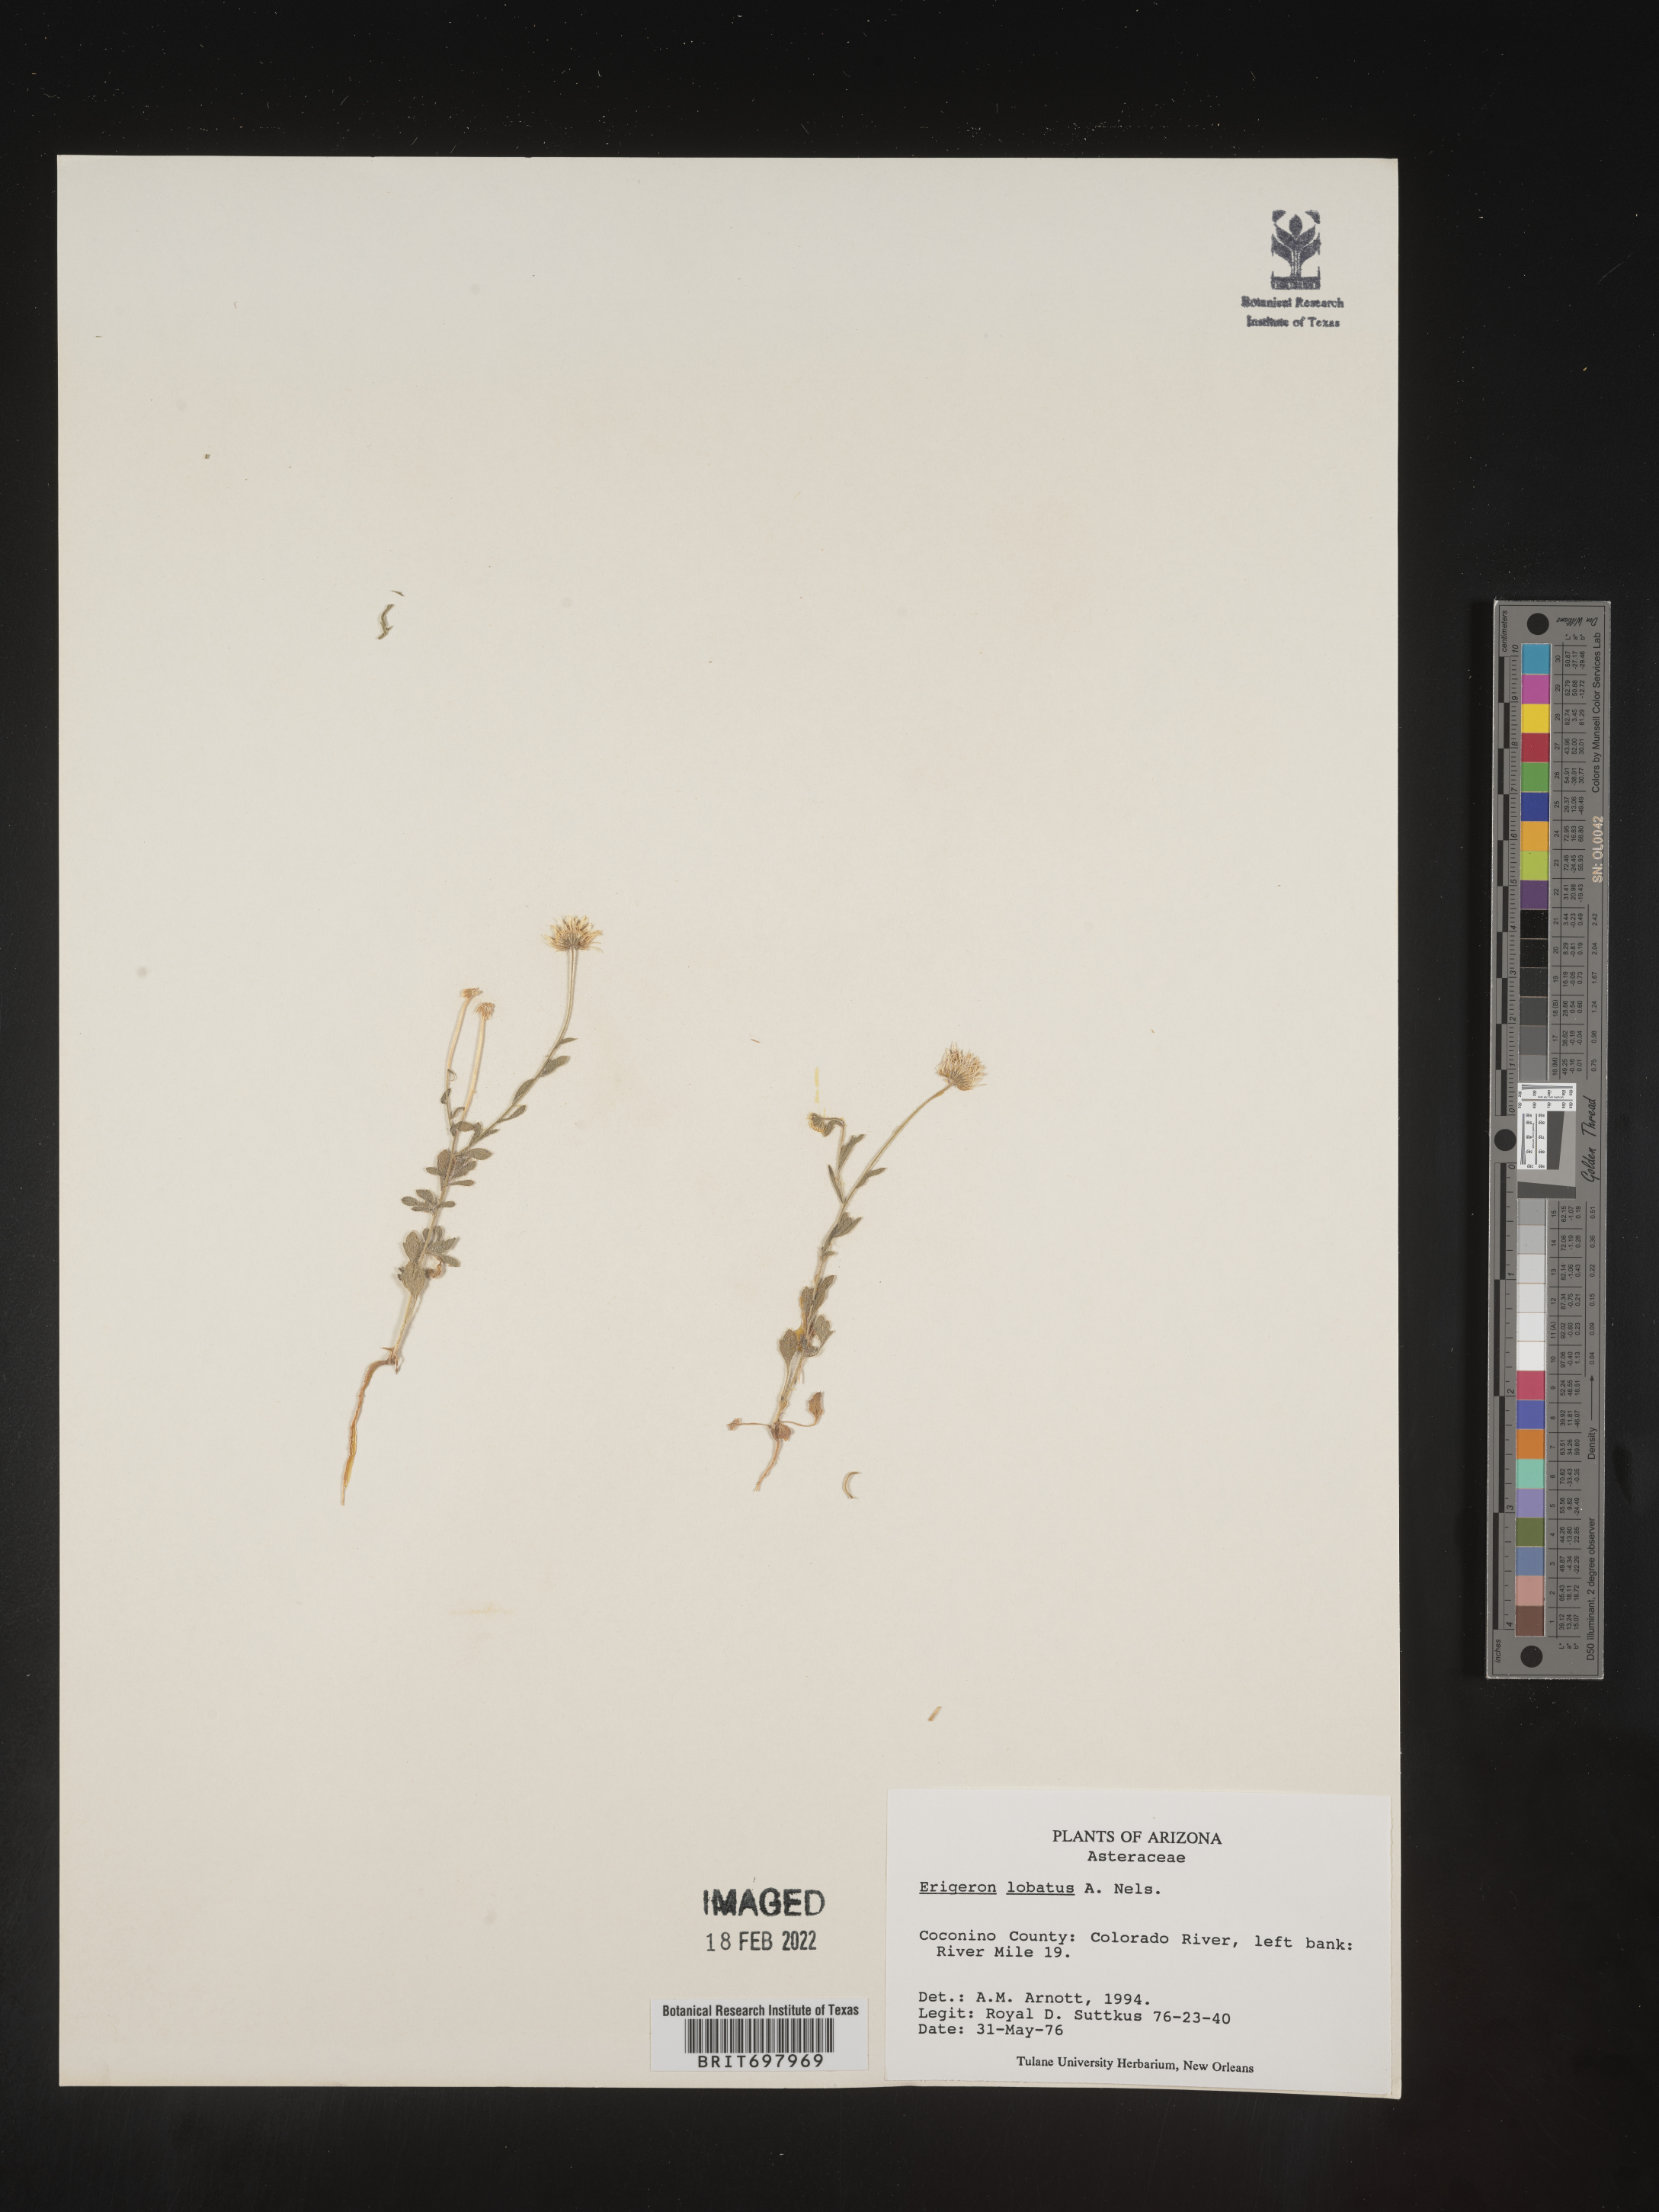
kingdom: Plantae
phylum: Tracheophyta
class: Magnoliopsida
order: Asterales
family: Asteraceae
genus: Erigeron
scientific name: Erigeron lobatus
